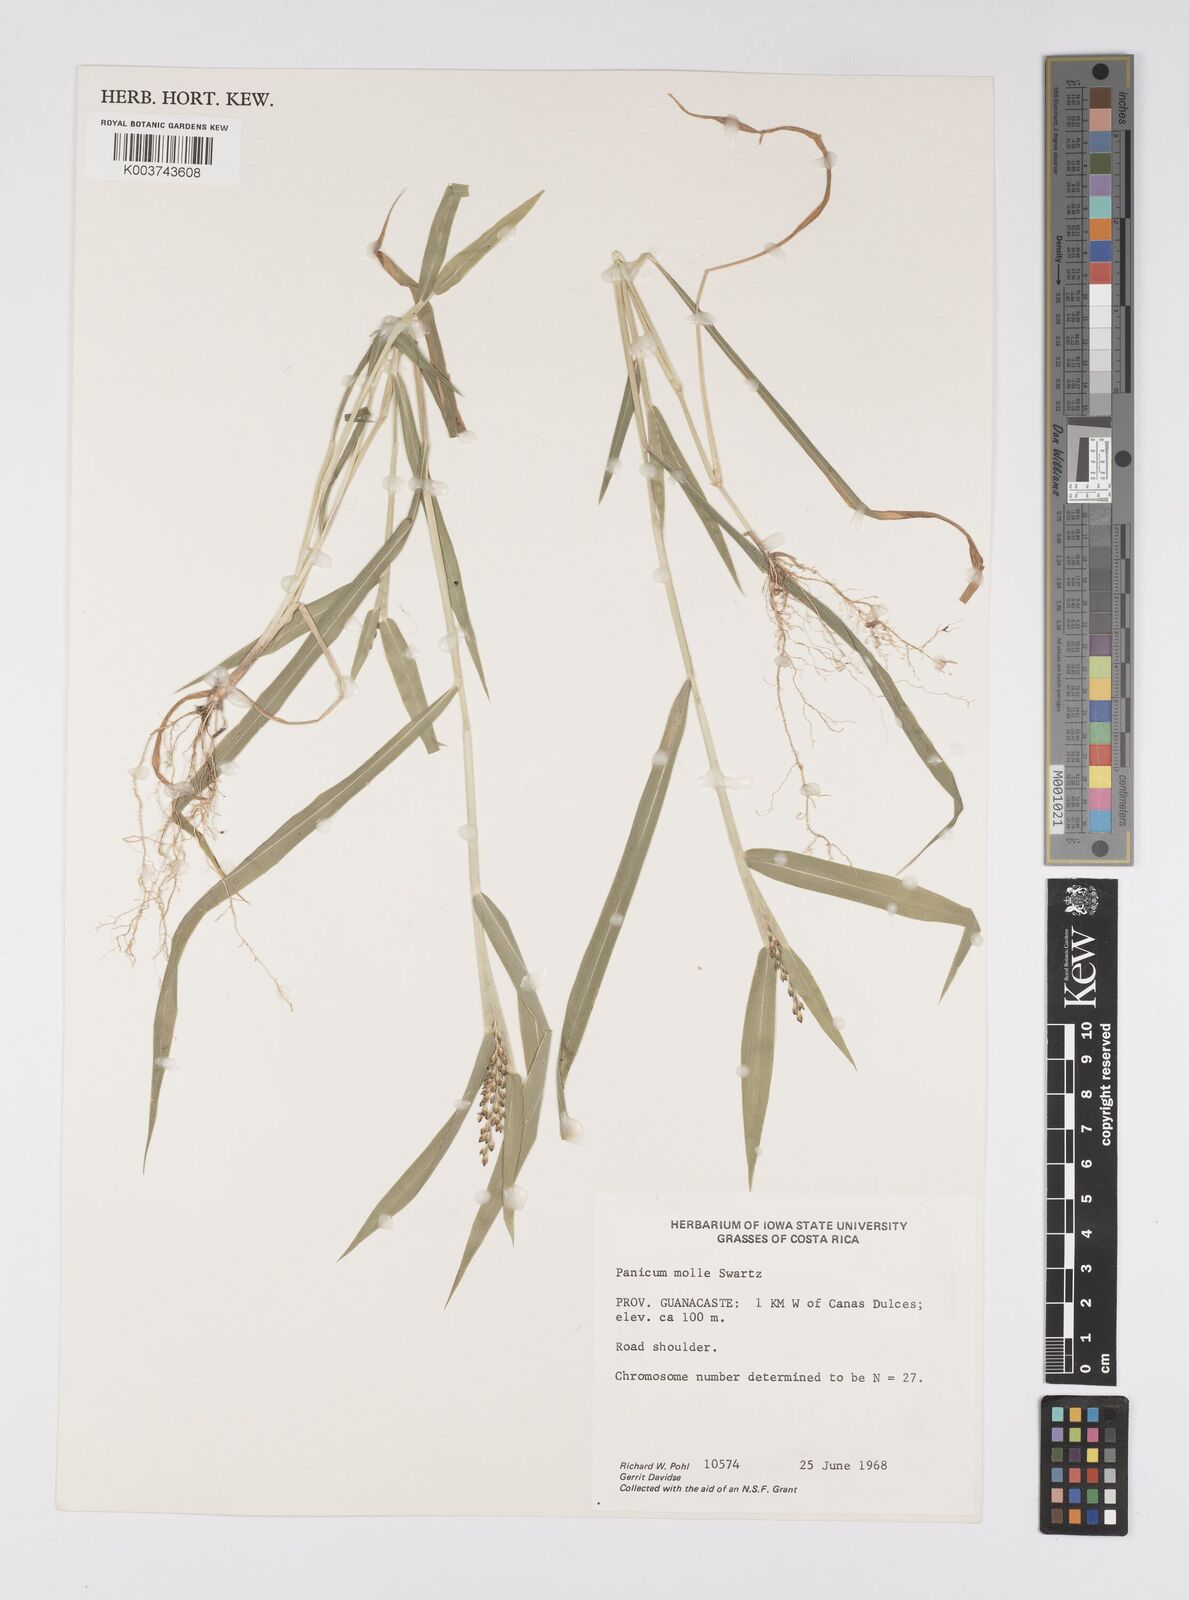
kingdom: Plantae
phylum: Tracheophyta
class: Liliopsida
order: Poales
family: Poaceae
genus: Urochloa
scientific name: Urochloa mollis
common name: Grass
